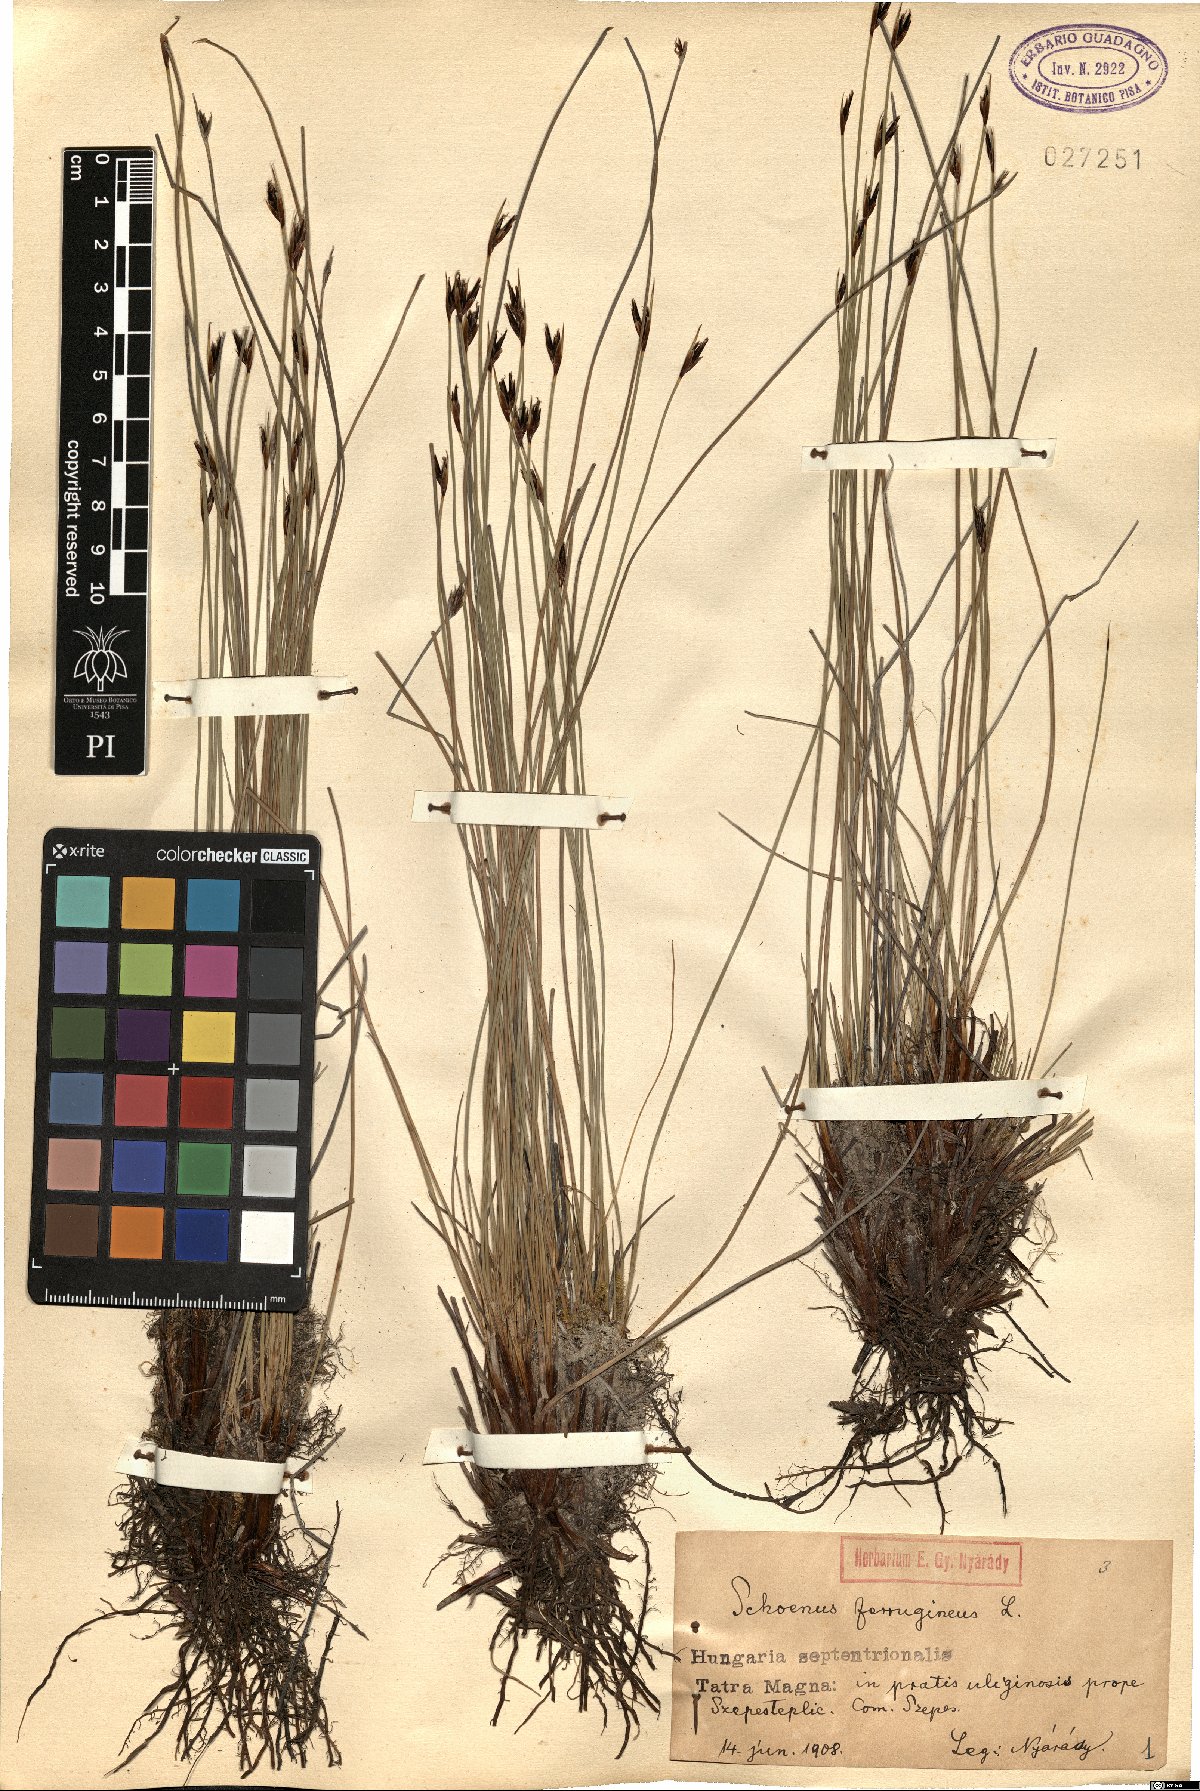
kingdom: Plantae
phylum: Tracheophyta
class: Liliopsida
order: Poales
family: Cyperaceae
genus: Schoenus
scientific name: Schoenus ferrugineus
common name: Brown bog-rush
